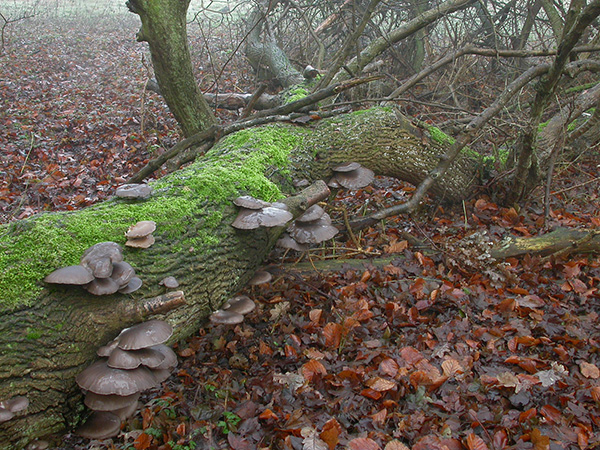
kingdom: Fungi
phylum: Basidiomycota
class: Agaricomycetes
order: Agaricales
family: Pleurotaceae
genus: Pleurotus
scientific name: Pleurotus ostreatus
